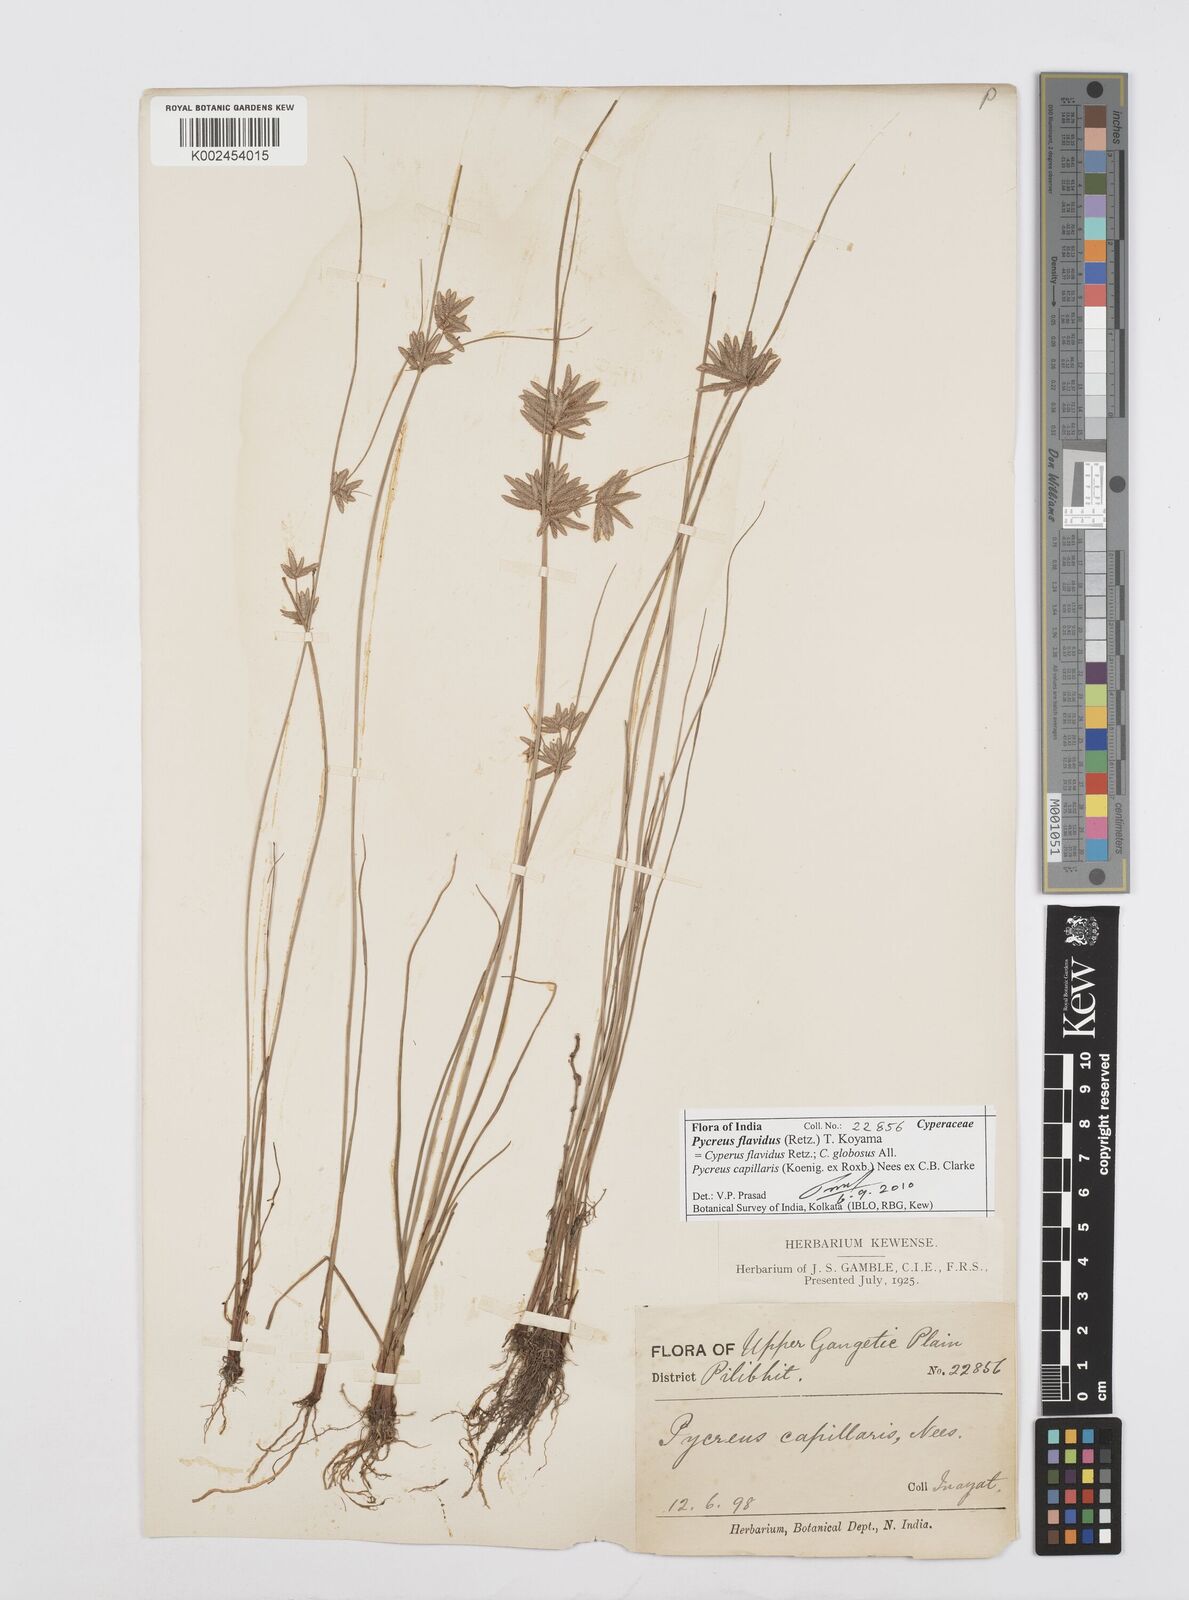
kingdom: Plantae
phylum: Tracheophyta
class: Liliopsida
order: Poales
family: Cyperaceae
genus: Cyperus
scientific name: Cyperus flavidus
